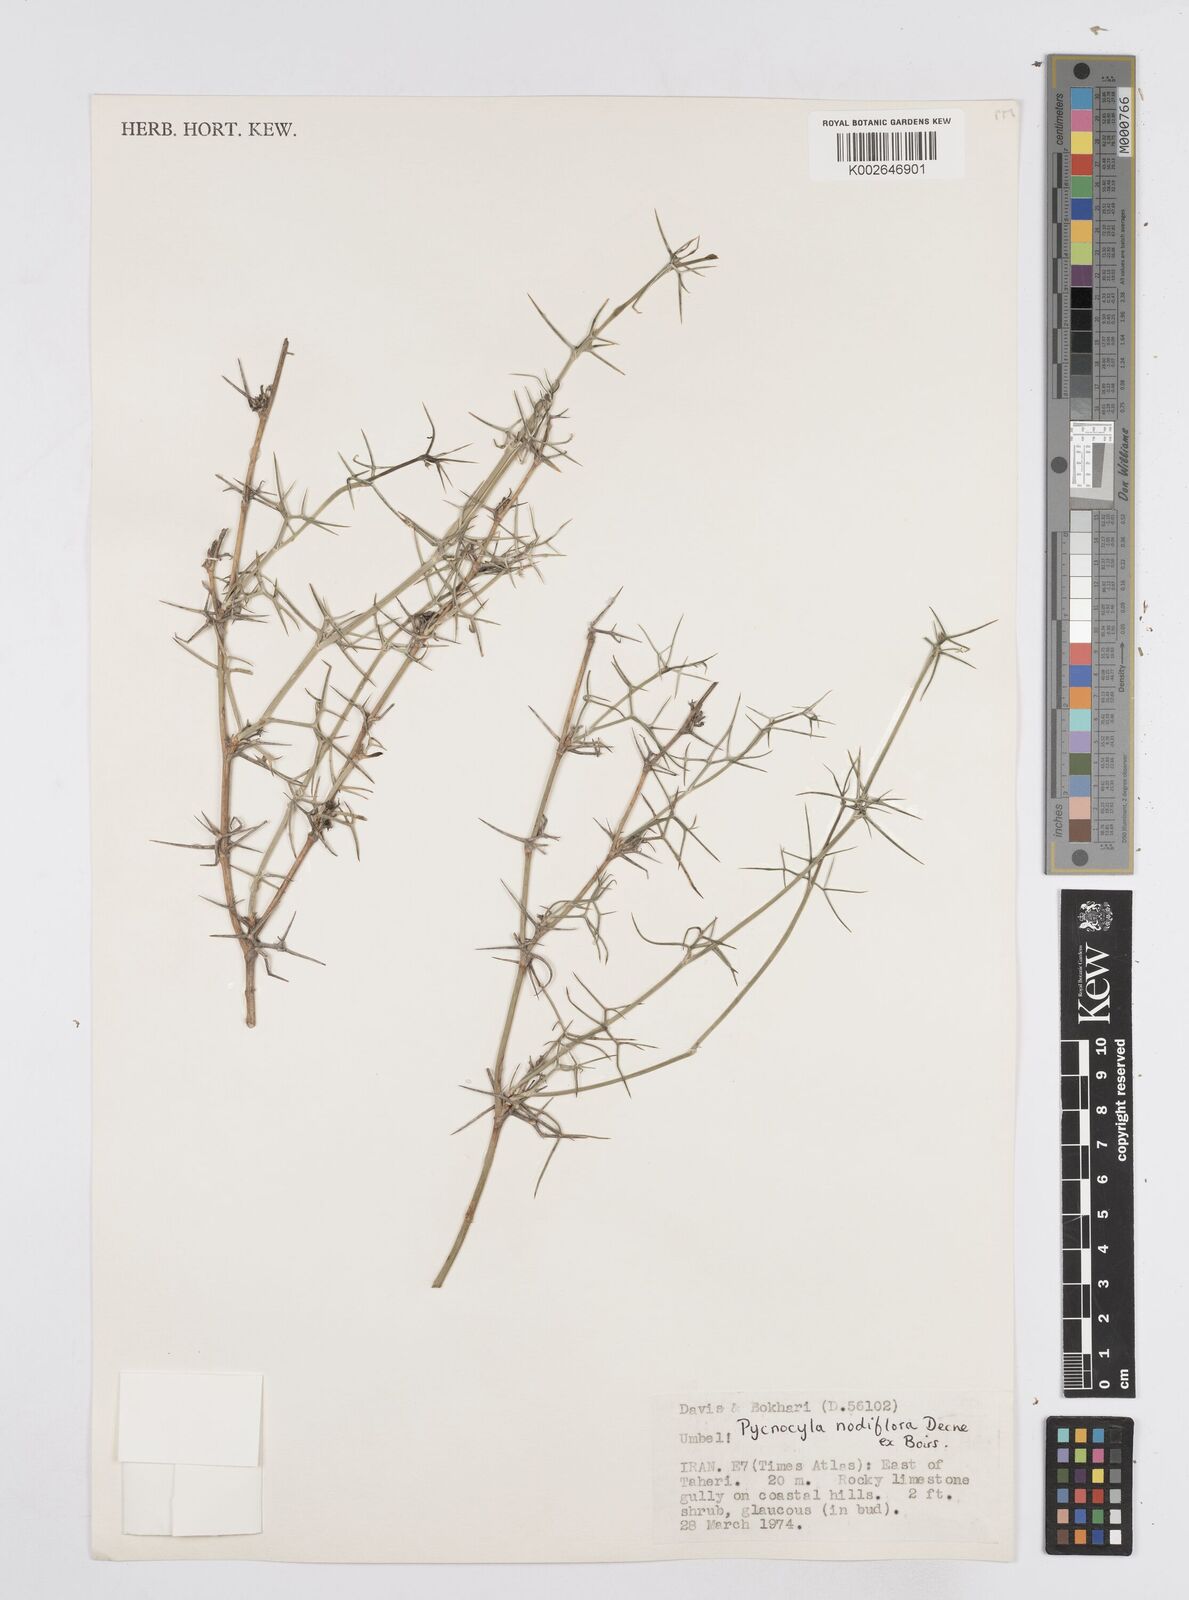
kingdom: Plantae
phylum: Tracheophyta
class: Magnoliopsida
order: Apiales
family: Apiaceae
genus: Pycnocycla
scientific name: Pycnocycla nodiflora
